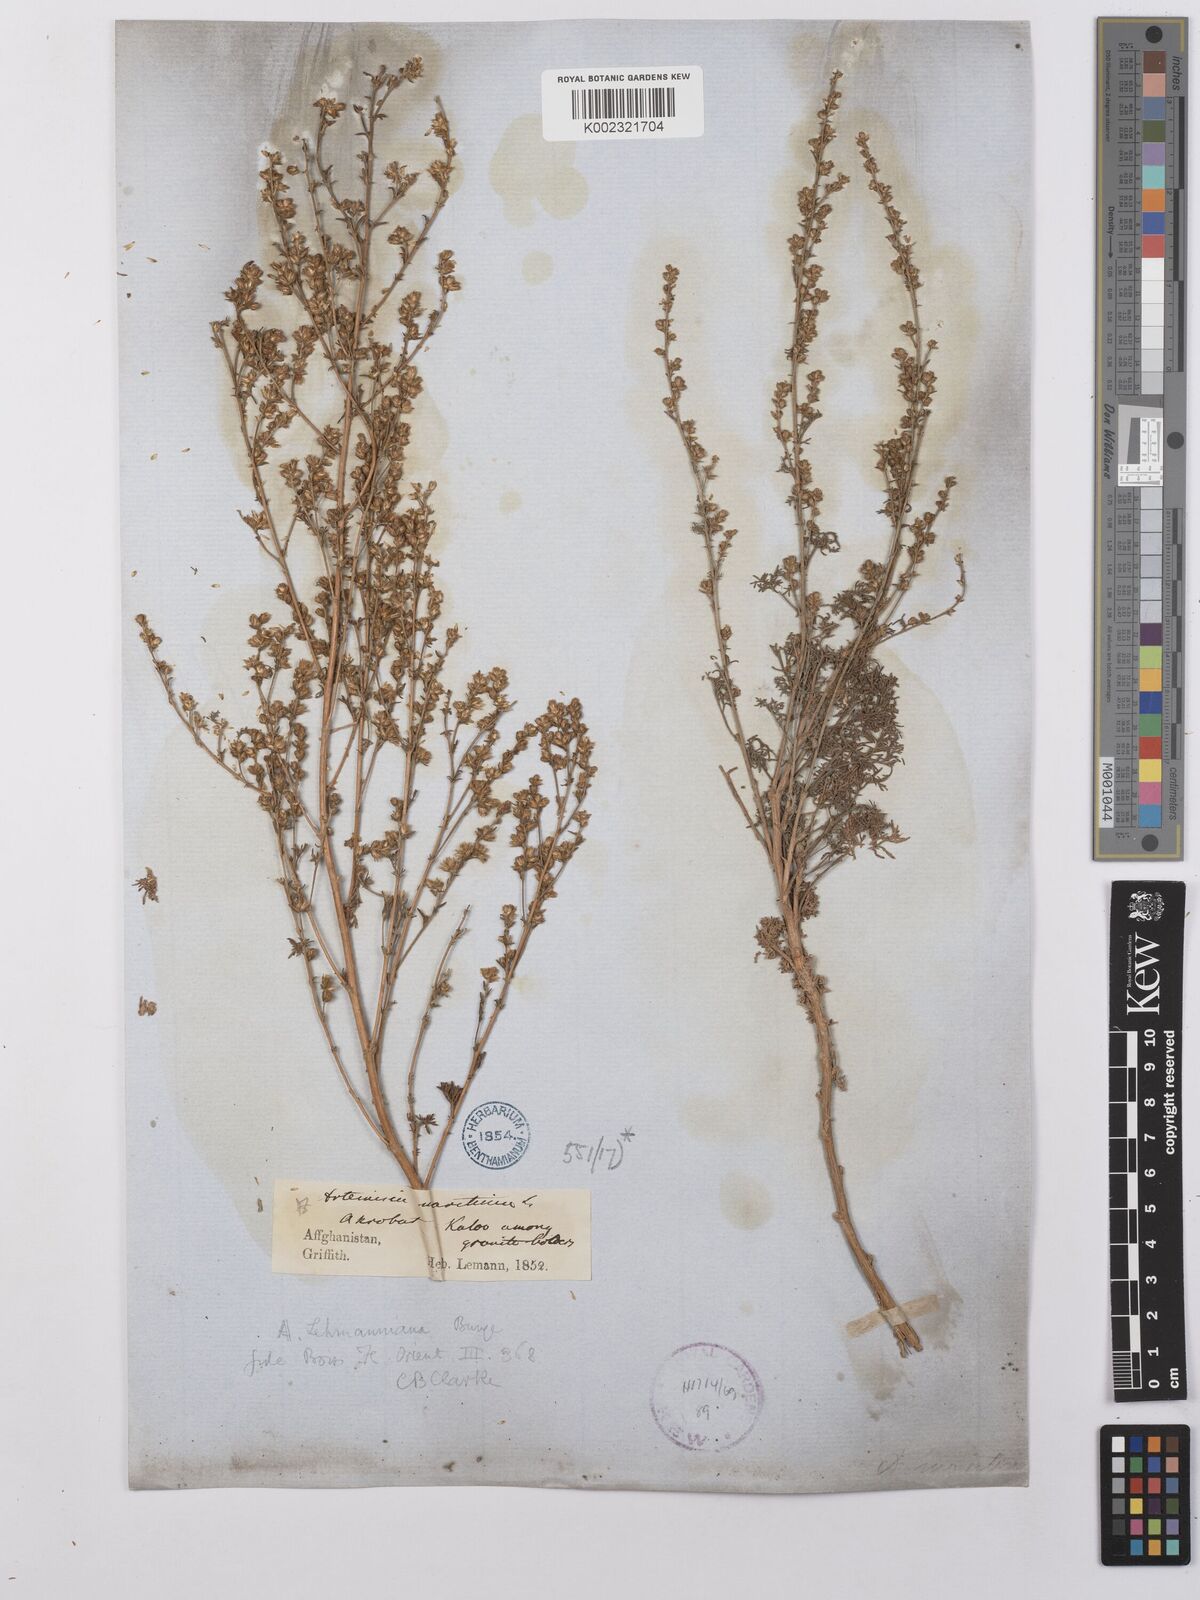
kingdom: Plantae
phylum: Tracheophyta
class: Magnoliopsida
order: Asterales
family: Asteraceae
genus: Artemisia
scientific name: Artemisia lehmanniana
